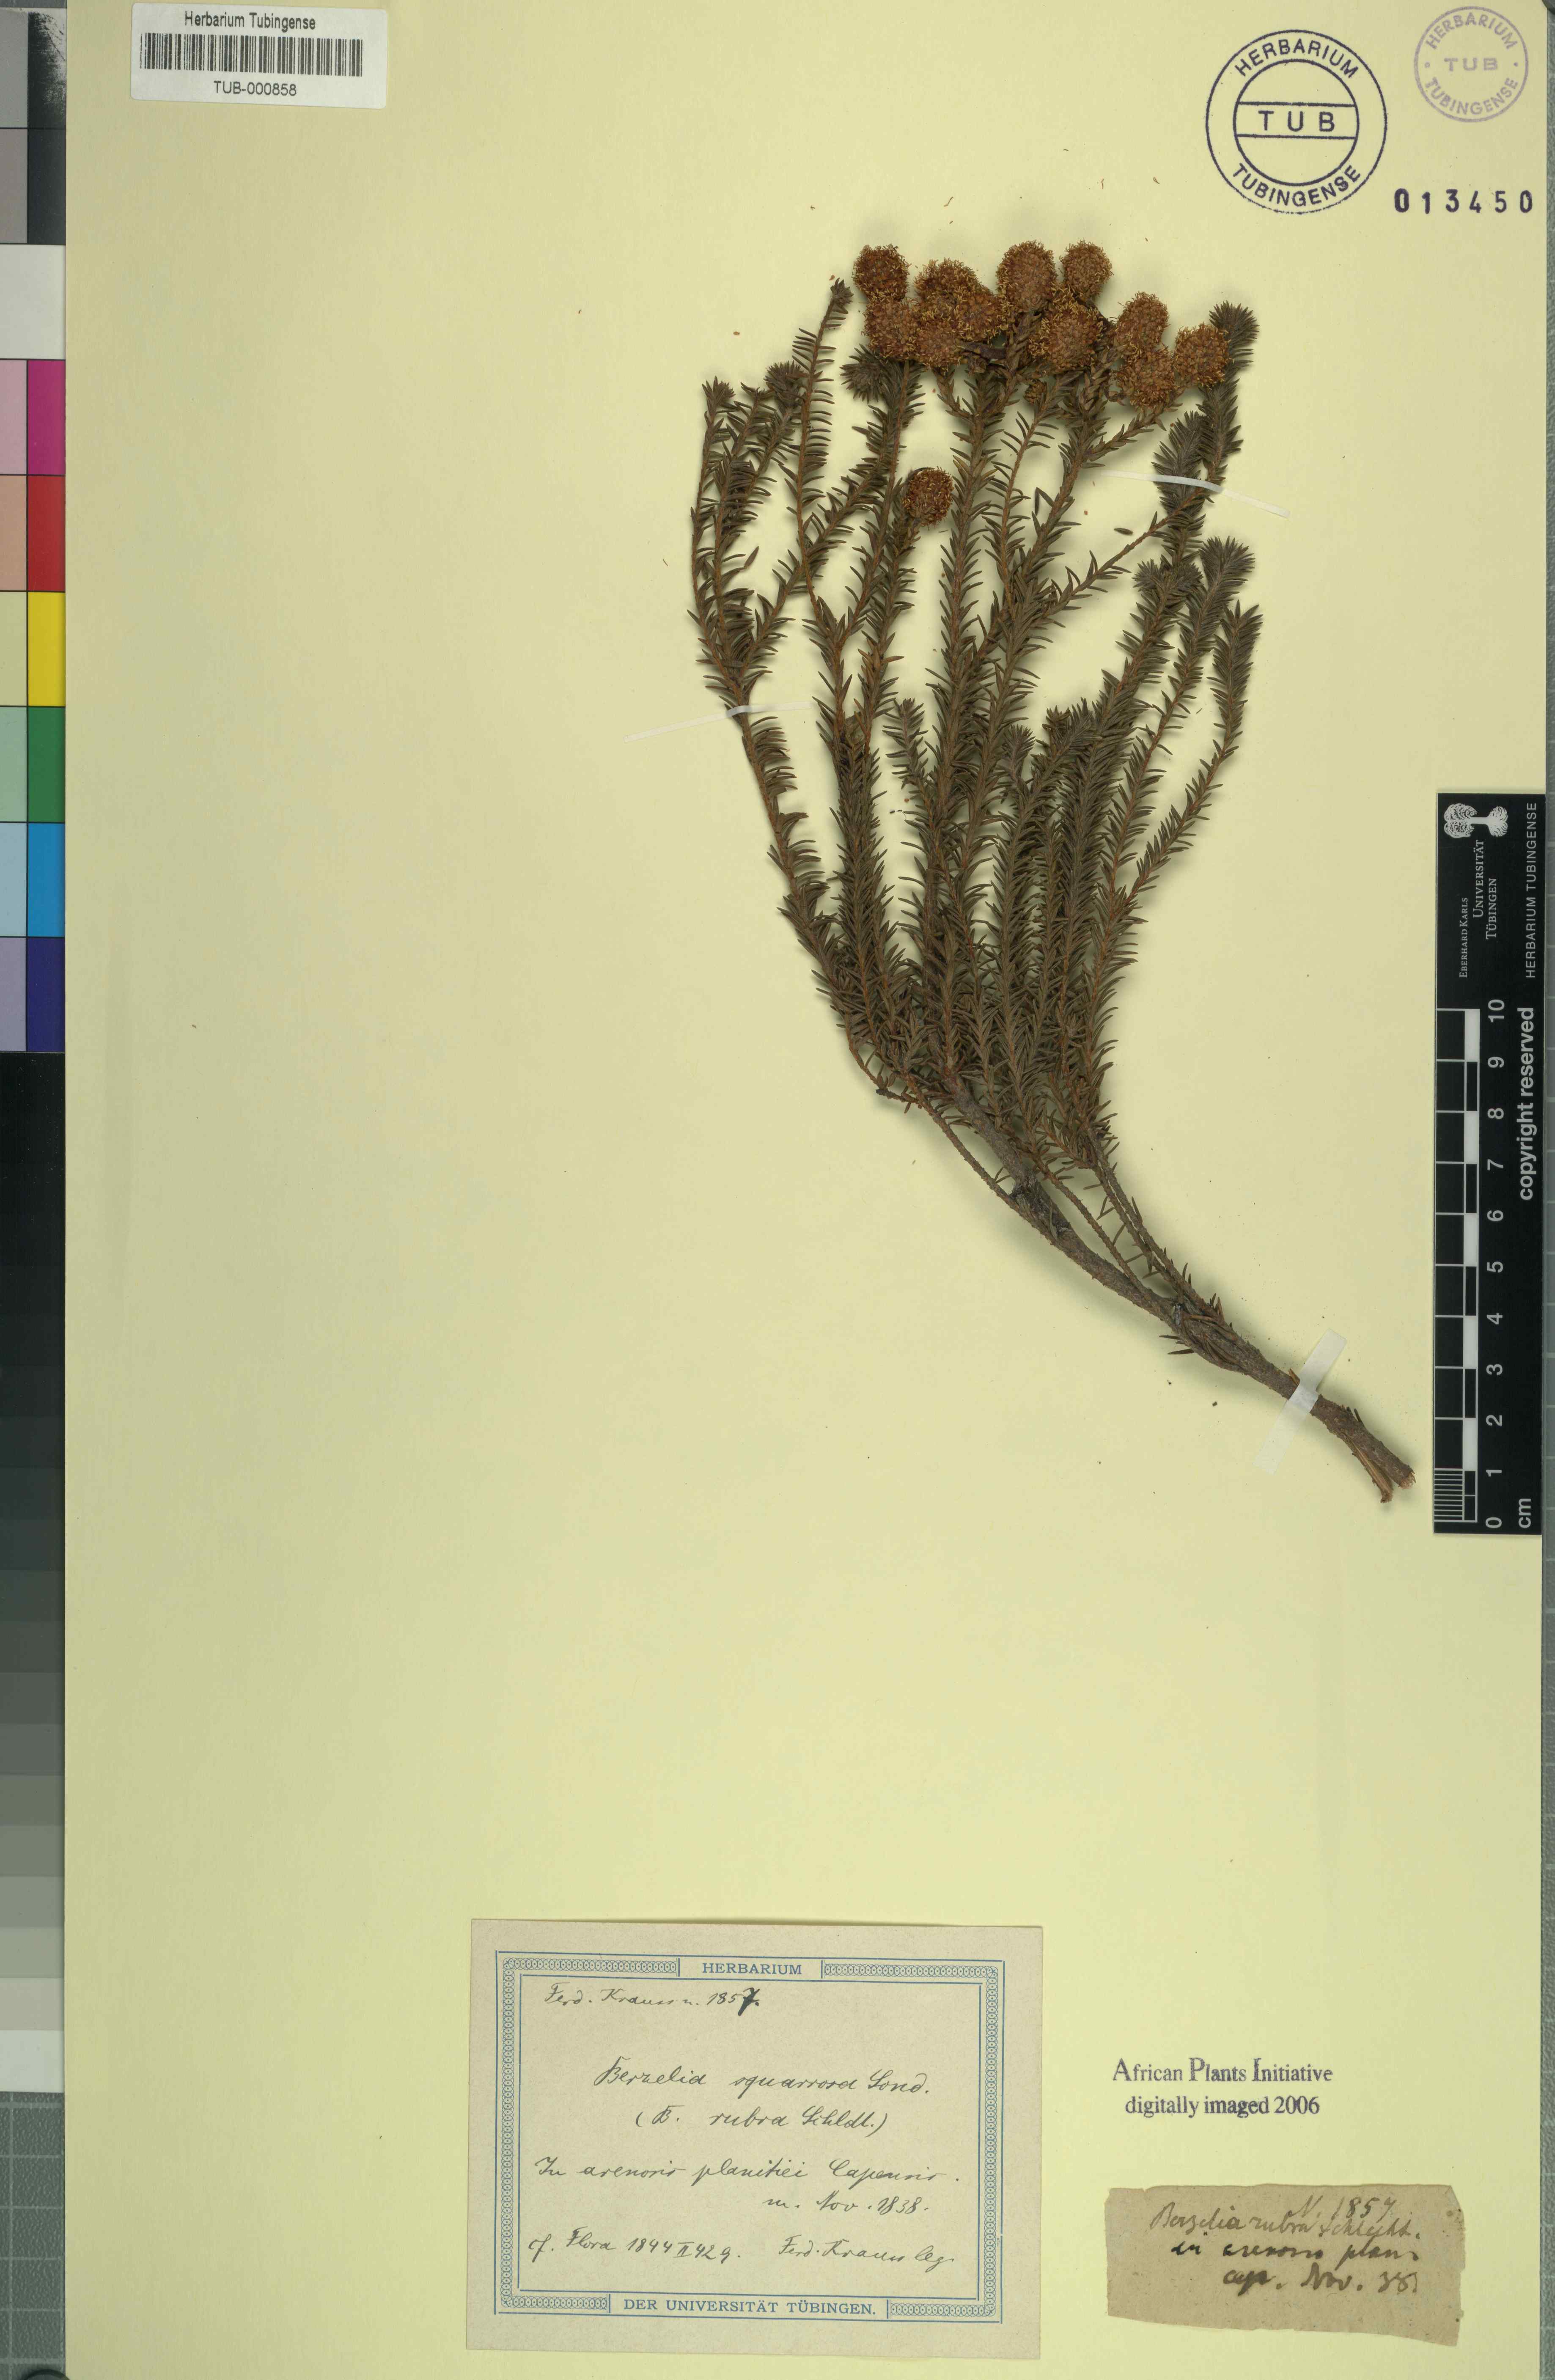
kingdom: Plantae
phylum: Tracheophyta
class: Magnoliopsida
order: Bruniales
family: Bruniaceae
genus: Berzelia
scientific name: Berzelia squarrosa
